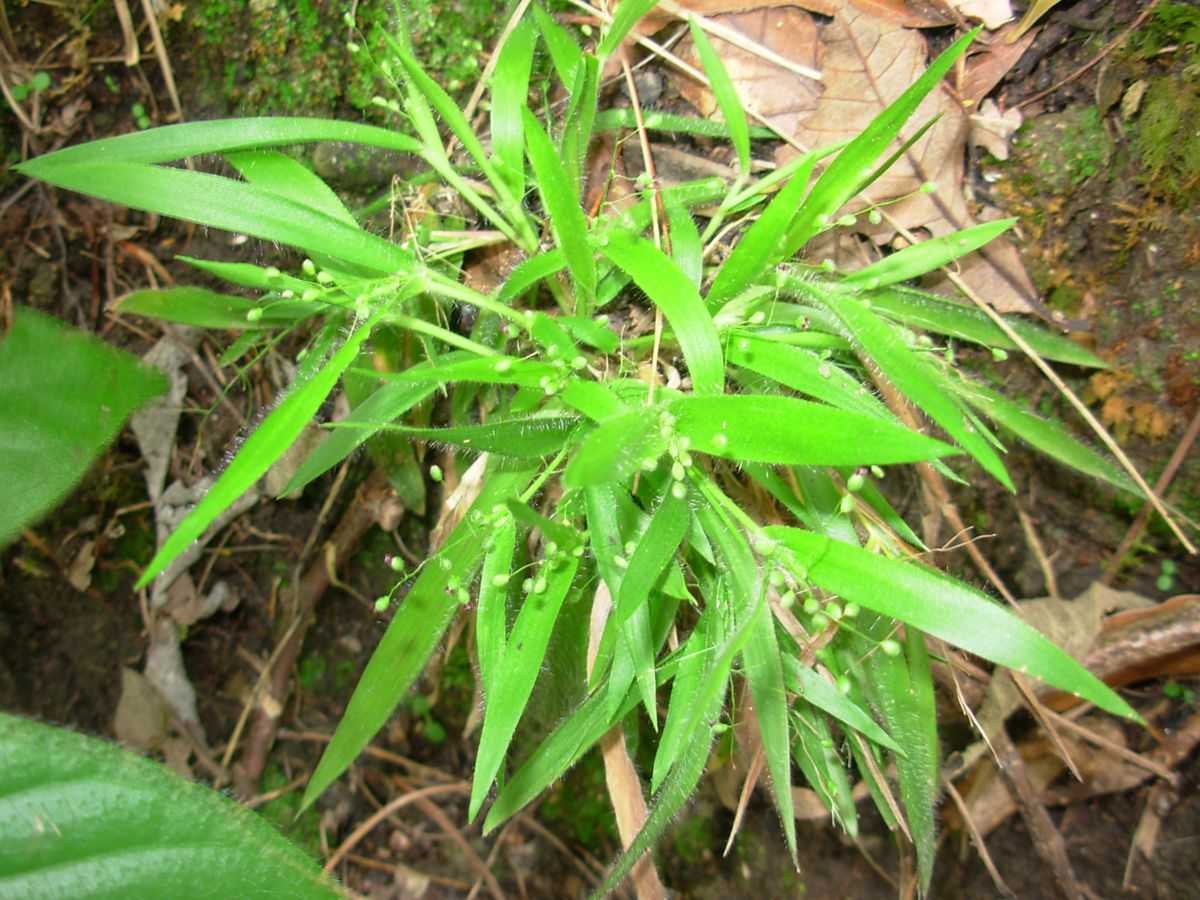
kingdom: Plantae
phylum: Tracheophyta
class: Liliopsida
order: Poales
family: Poaceae
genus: Dichanthelium
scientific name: Dichanthelium laxiflorum
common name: Soft-tuft panic grass
